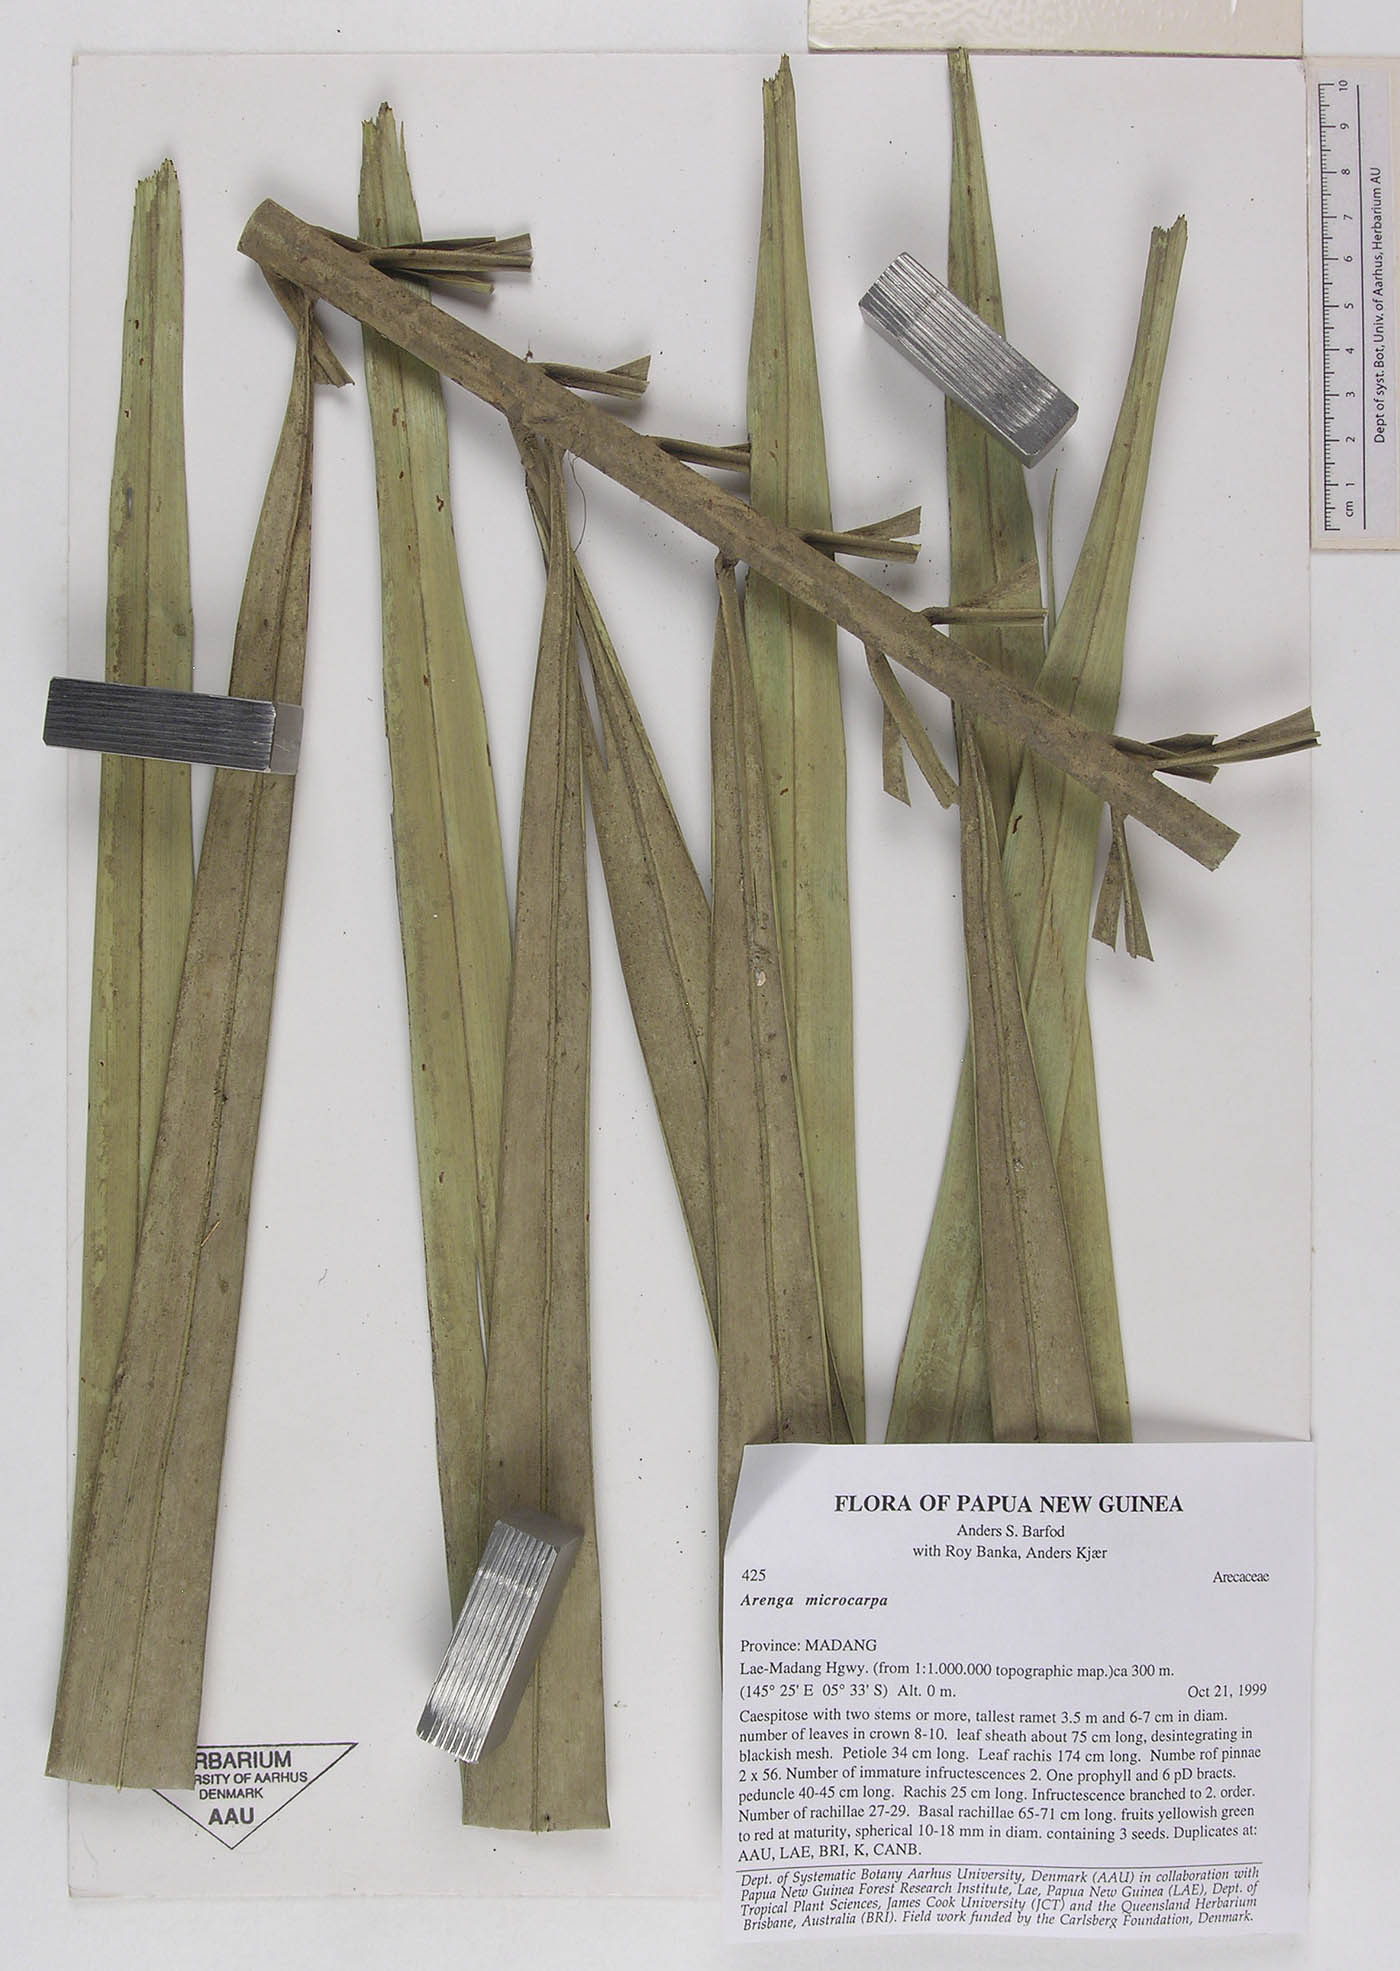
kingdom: Plantae
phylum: Tracheophyta
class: Liliopsida
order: Arecales
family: Arecaceae
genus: Arenga
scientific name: Arenga microcarpa
